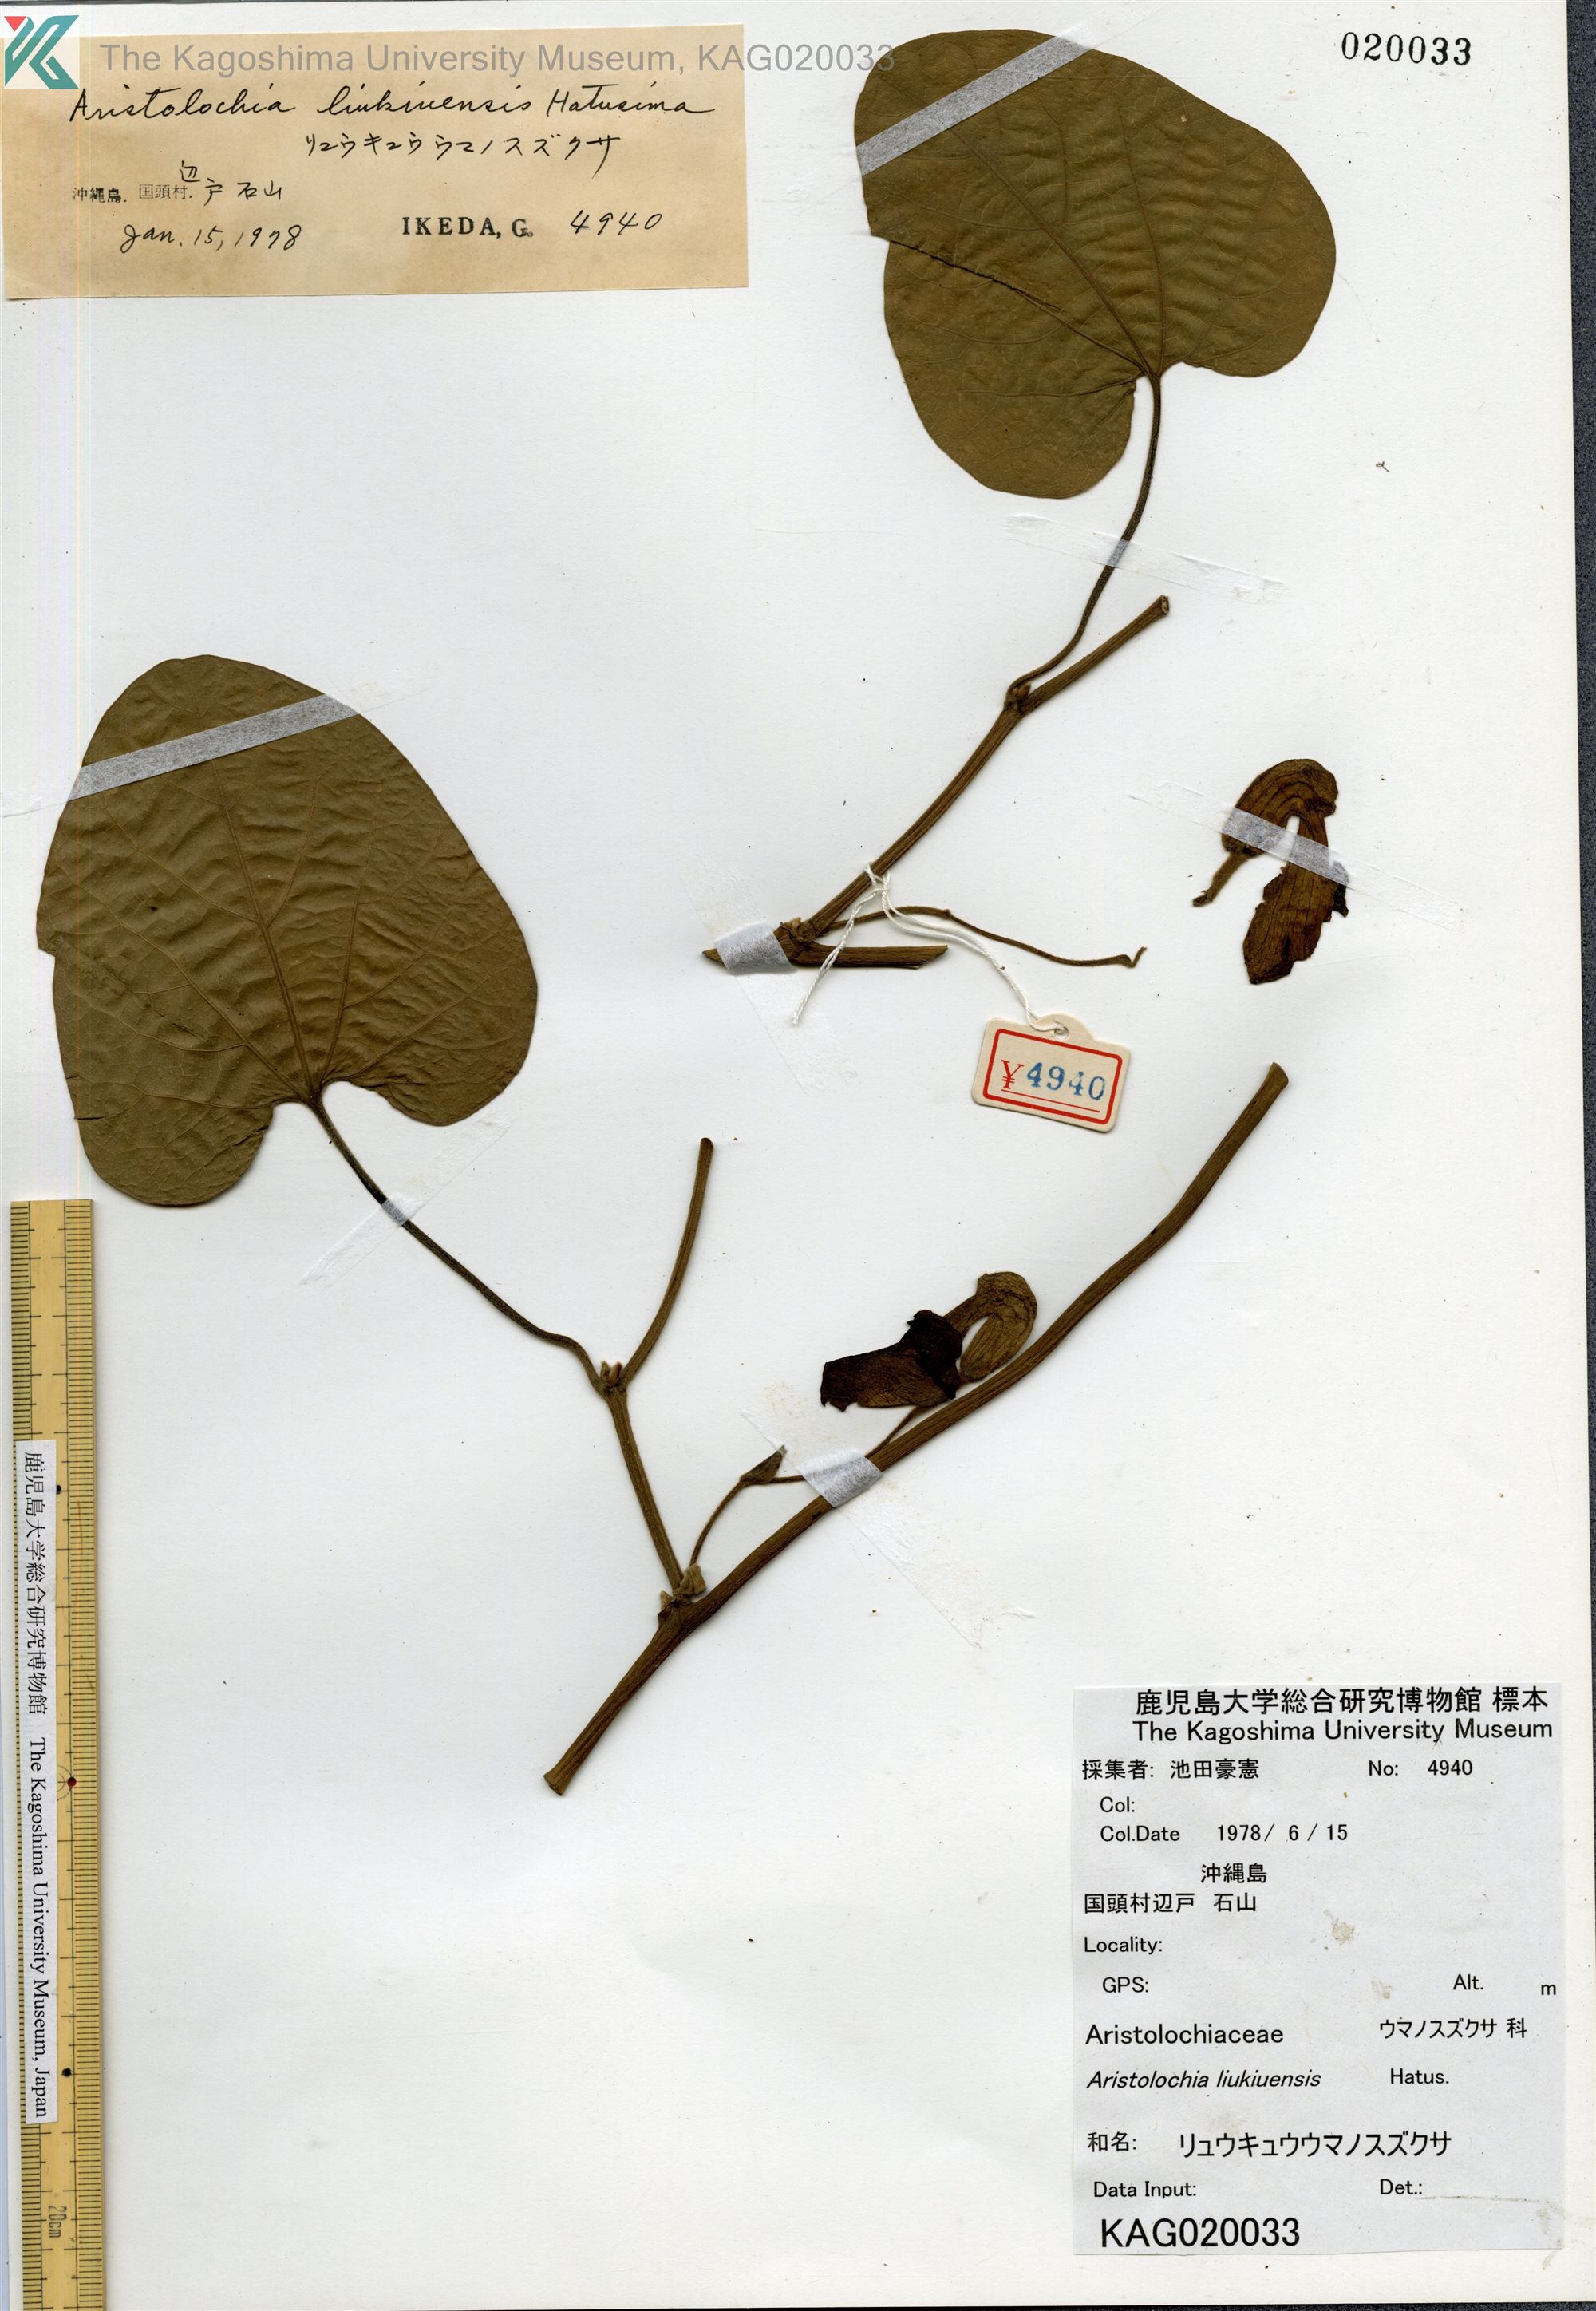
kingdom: Plantae
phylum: Tracheophyta
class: Magnoliopsida
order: Piperales
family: Aristolochiaceae
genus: Isotrema
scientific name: Isotrema liukiuense
